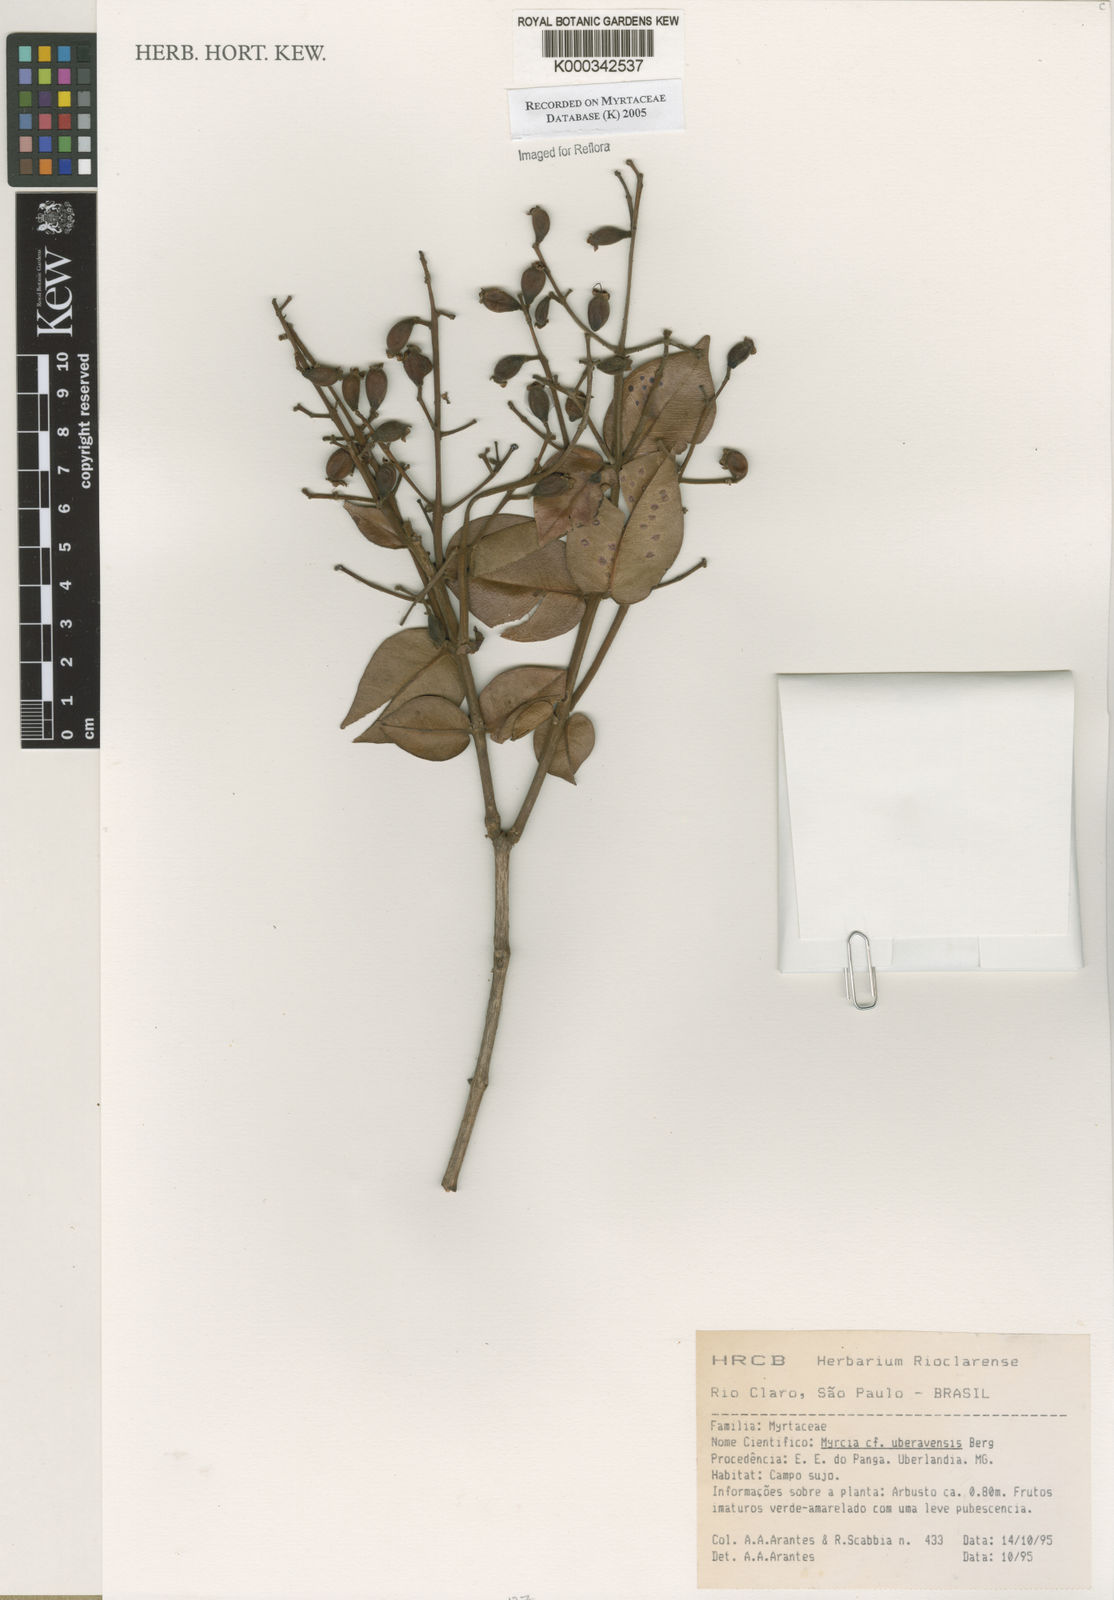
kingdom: Plantae
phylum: Tracheophyta
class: Magnoliopsida
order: Myrtales
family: Myrtaceae
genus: Myrcia
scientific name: Myrcia uberavensis
